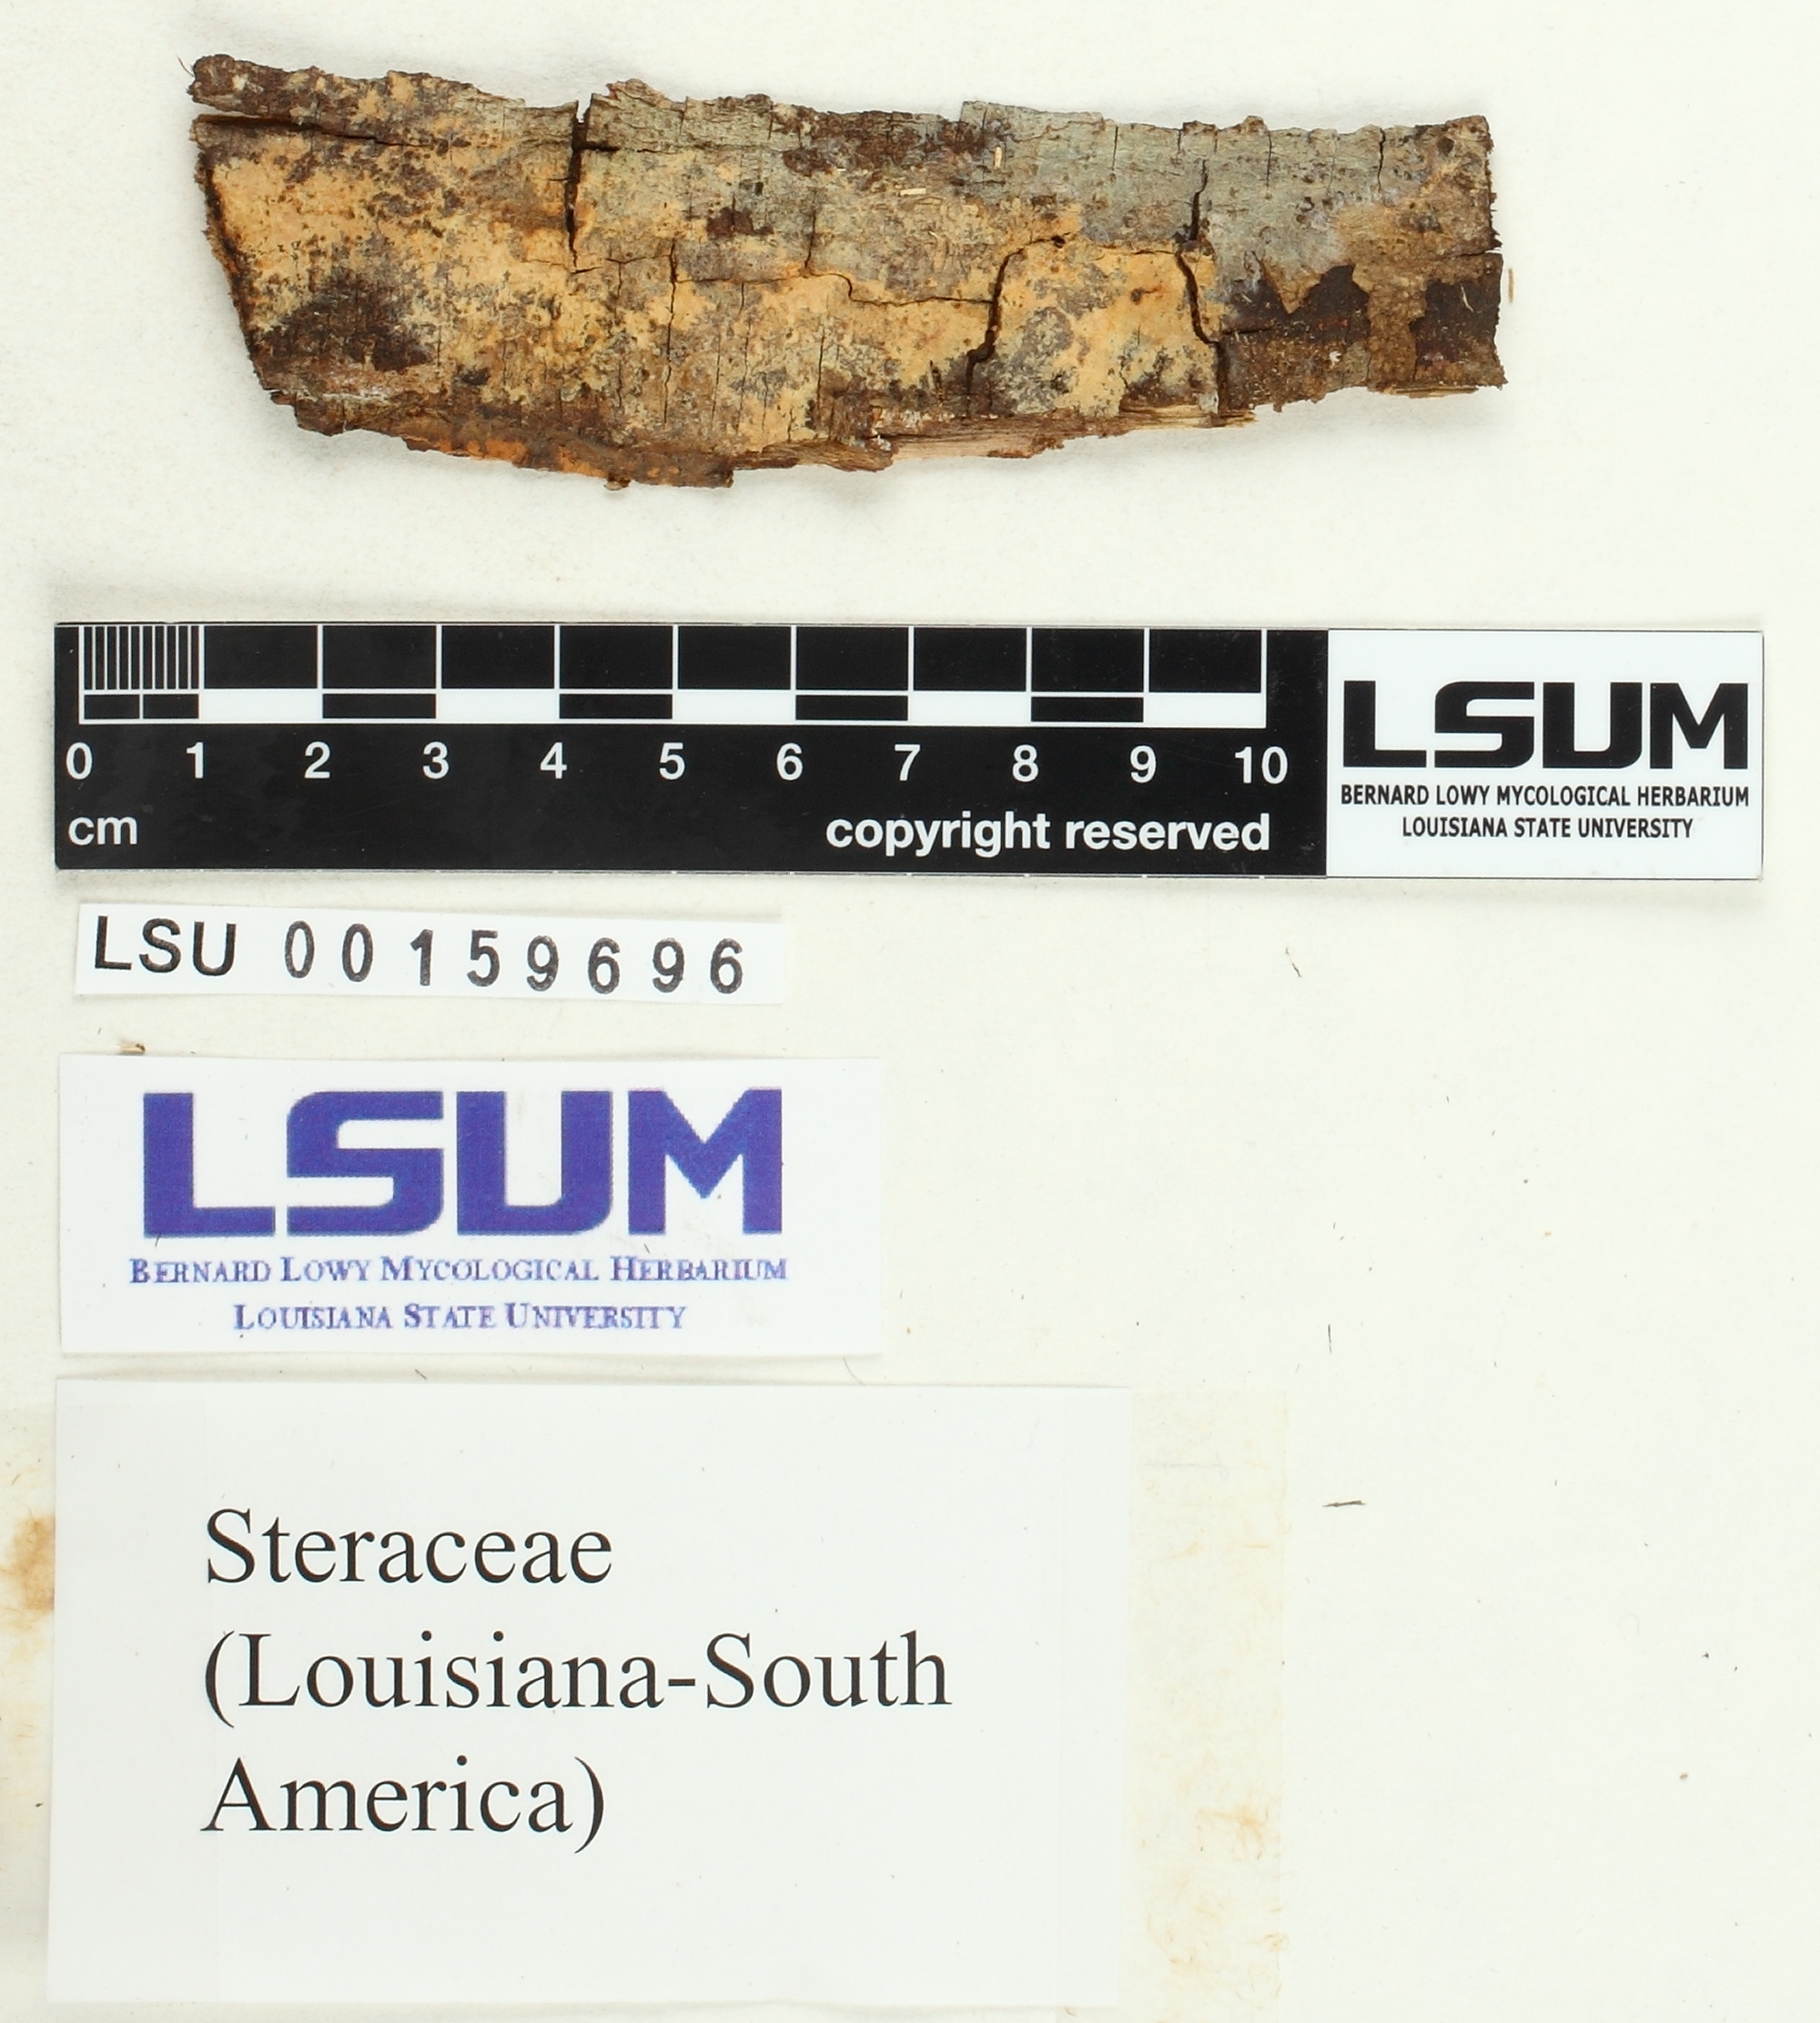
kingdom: Fungi
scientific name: Fungi
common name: Fungi
